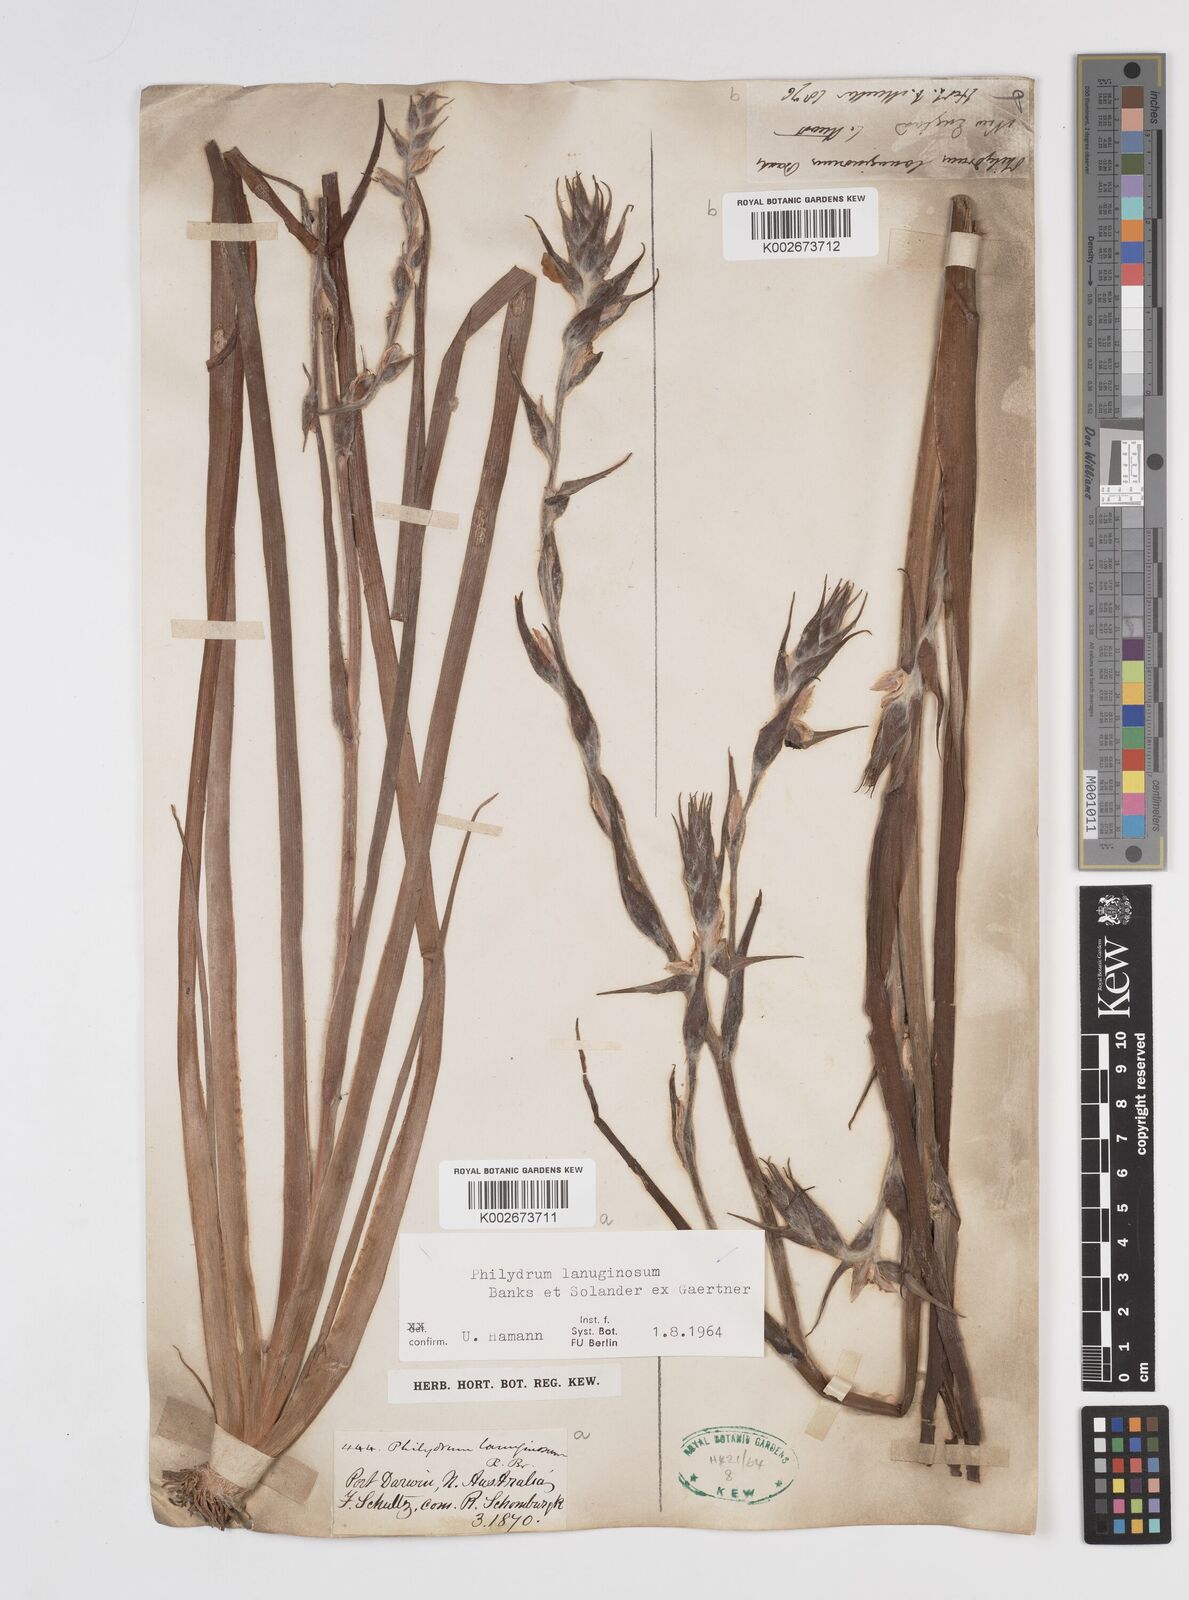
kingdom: Plantae
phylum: Tracheophyta
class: Liliopsida
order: Commelinales
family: Philydraceae
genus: Philydrum
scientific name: Philydrum lanuginosum
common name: Woolly frog's mouth
